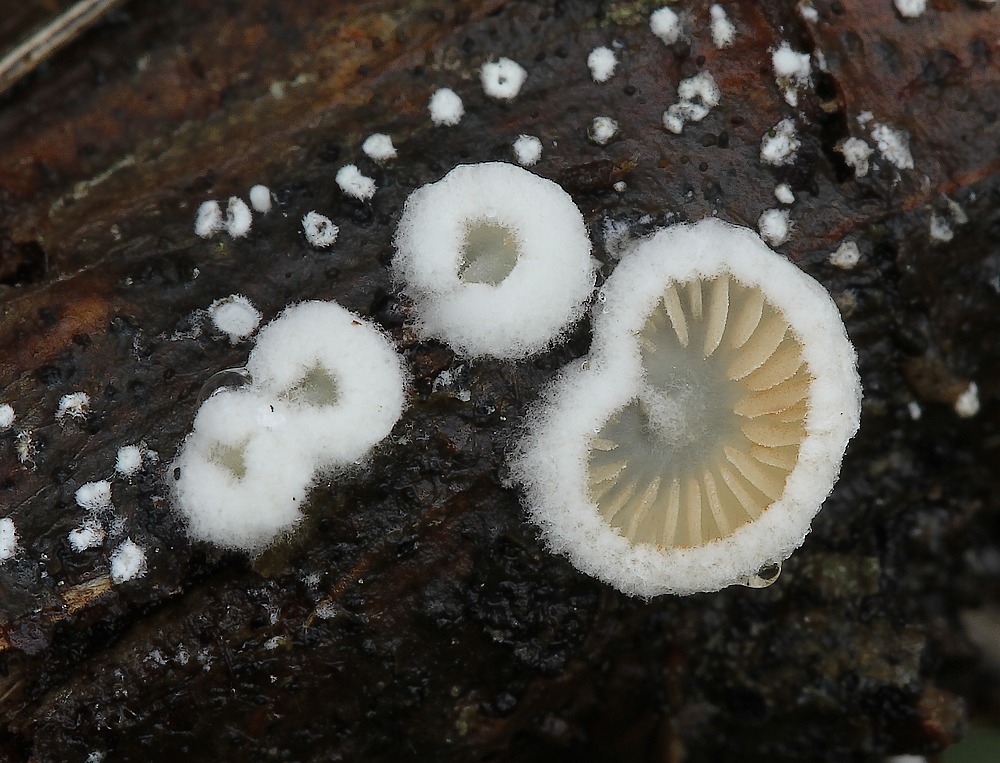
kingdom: Fungi
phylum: Basidiomycota
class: Agaricomycetes
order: Agaricales
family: Crepidotaceae
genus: Crepidotus
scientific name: Crepidotus
